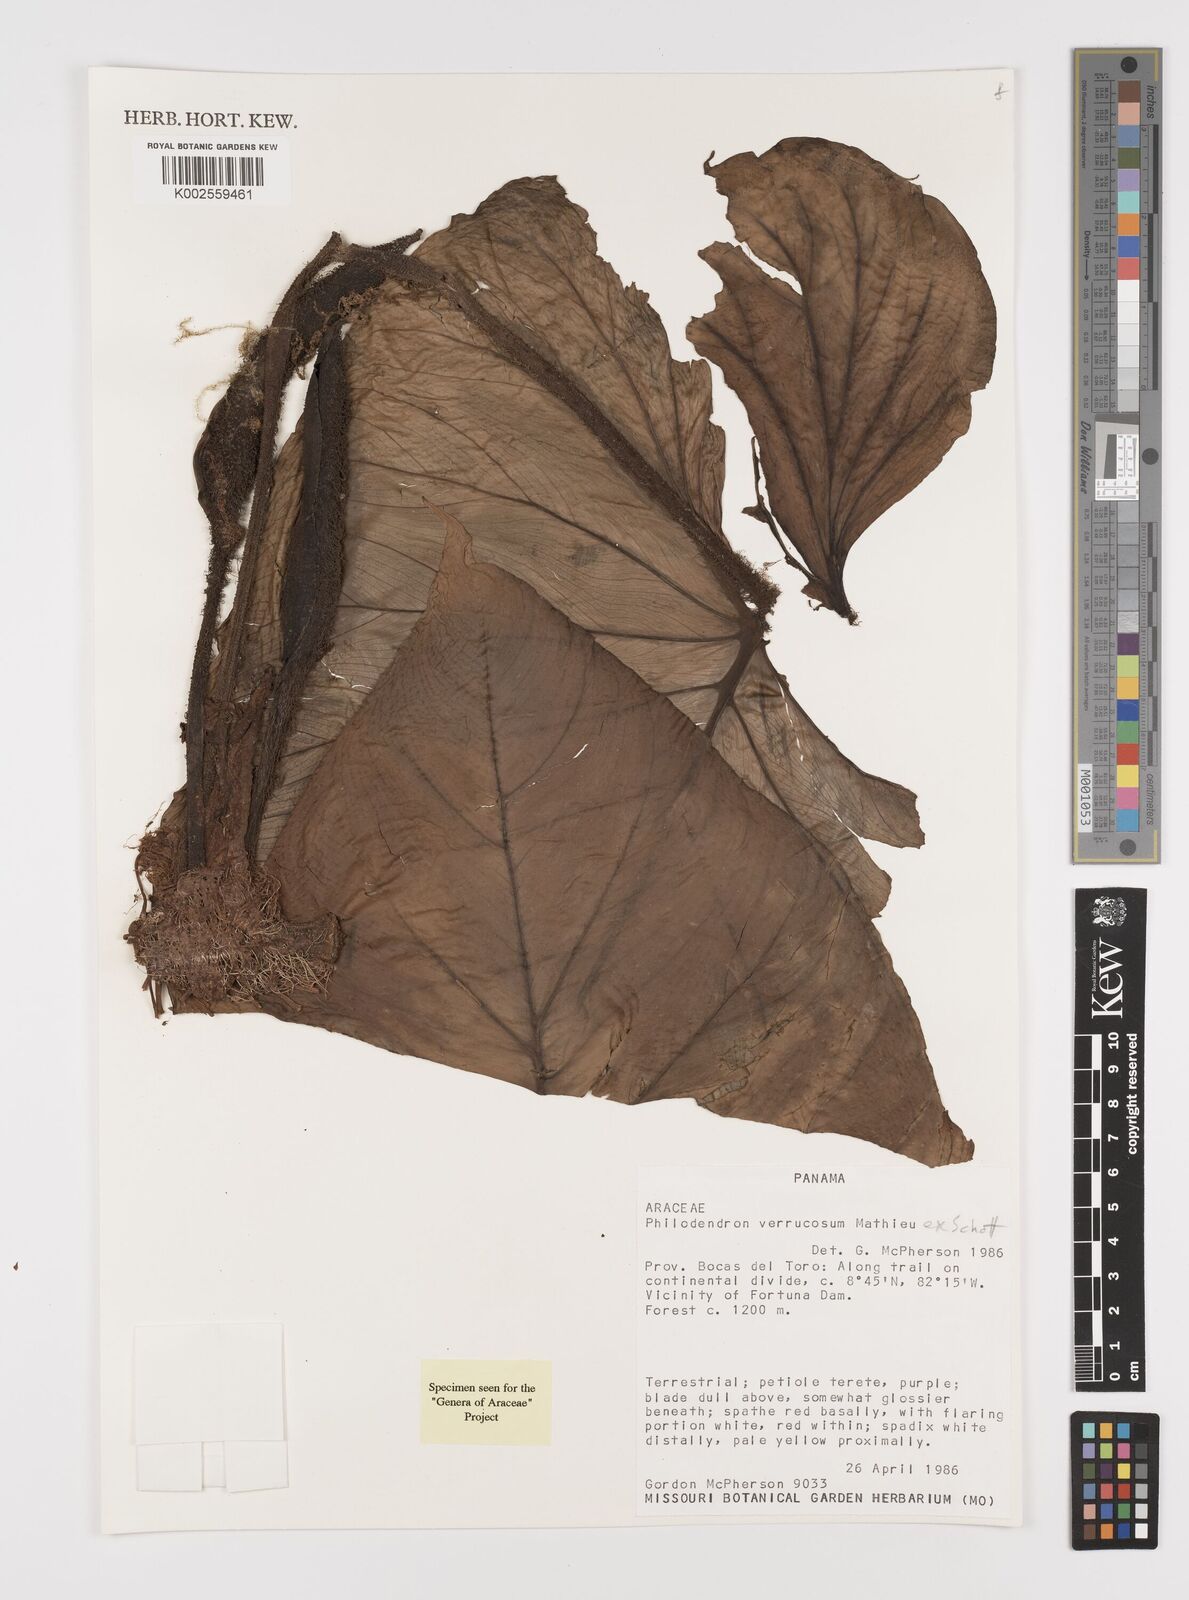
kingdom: Plantae
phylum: Tracheophyta
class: Liliopsida
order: Alismatales
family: Araceae
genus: Philodendron
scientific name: Philodendron verrucosum
